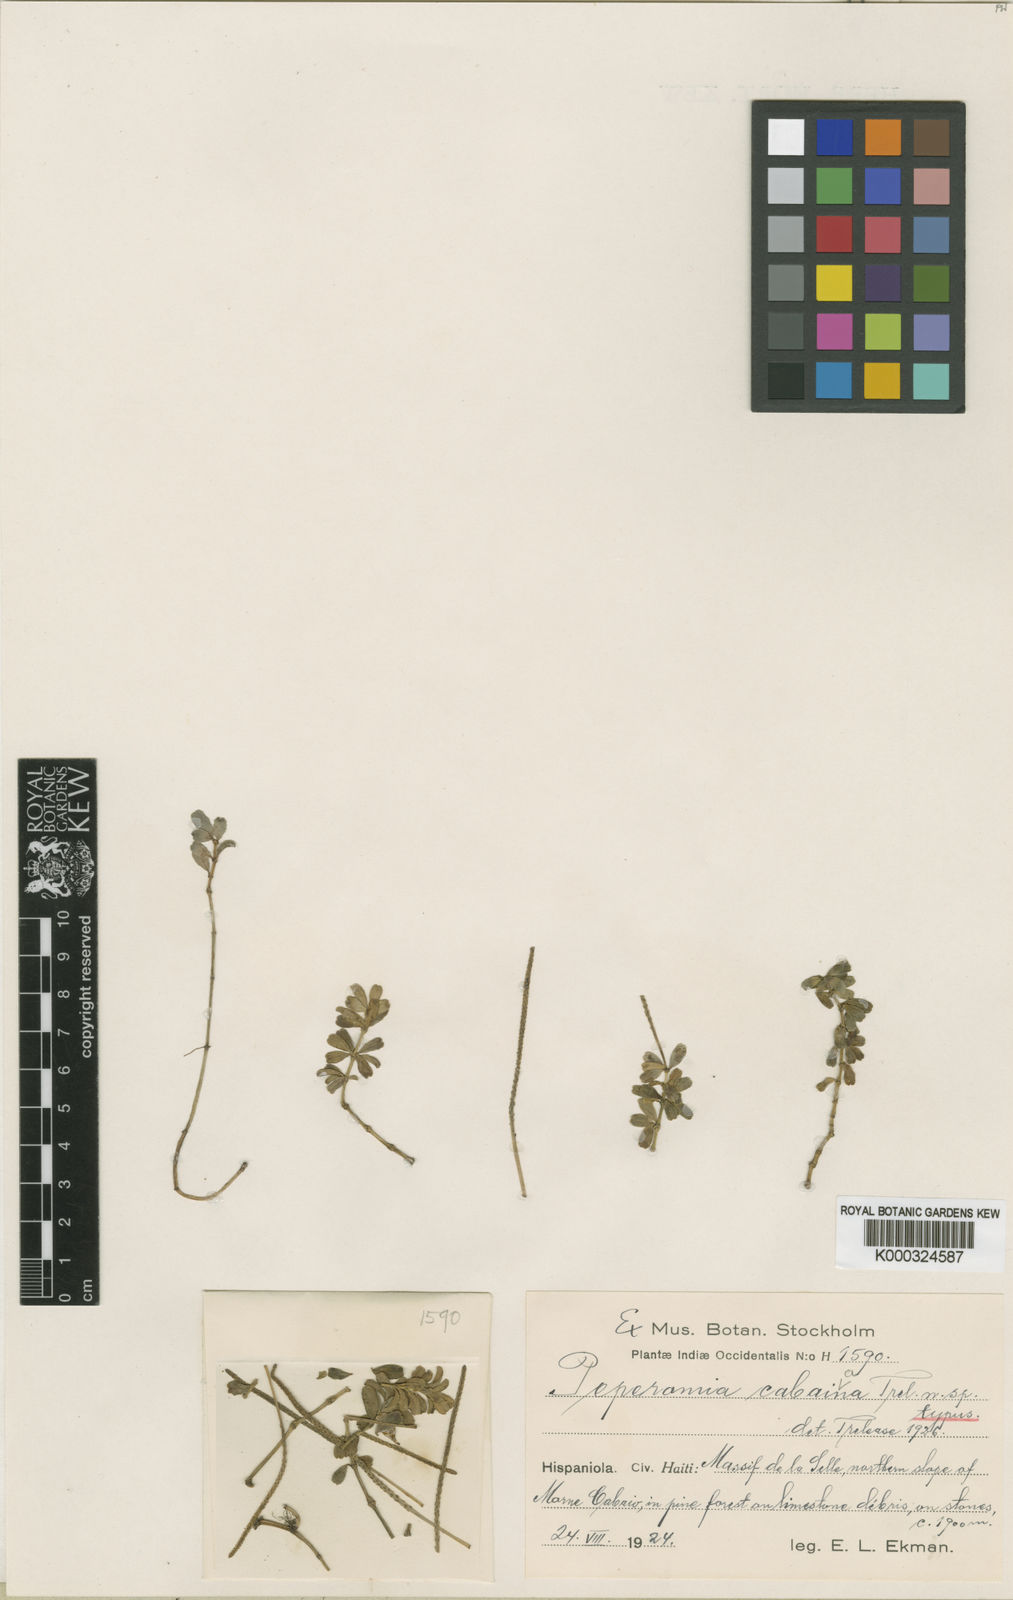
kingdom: Plantae
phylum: Tracheophyta
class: Magnoliopsida
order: Piperales
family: Piperaceae
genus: Peperomia
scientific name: Peperomia quadrifolia
